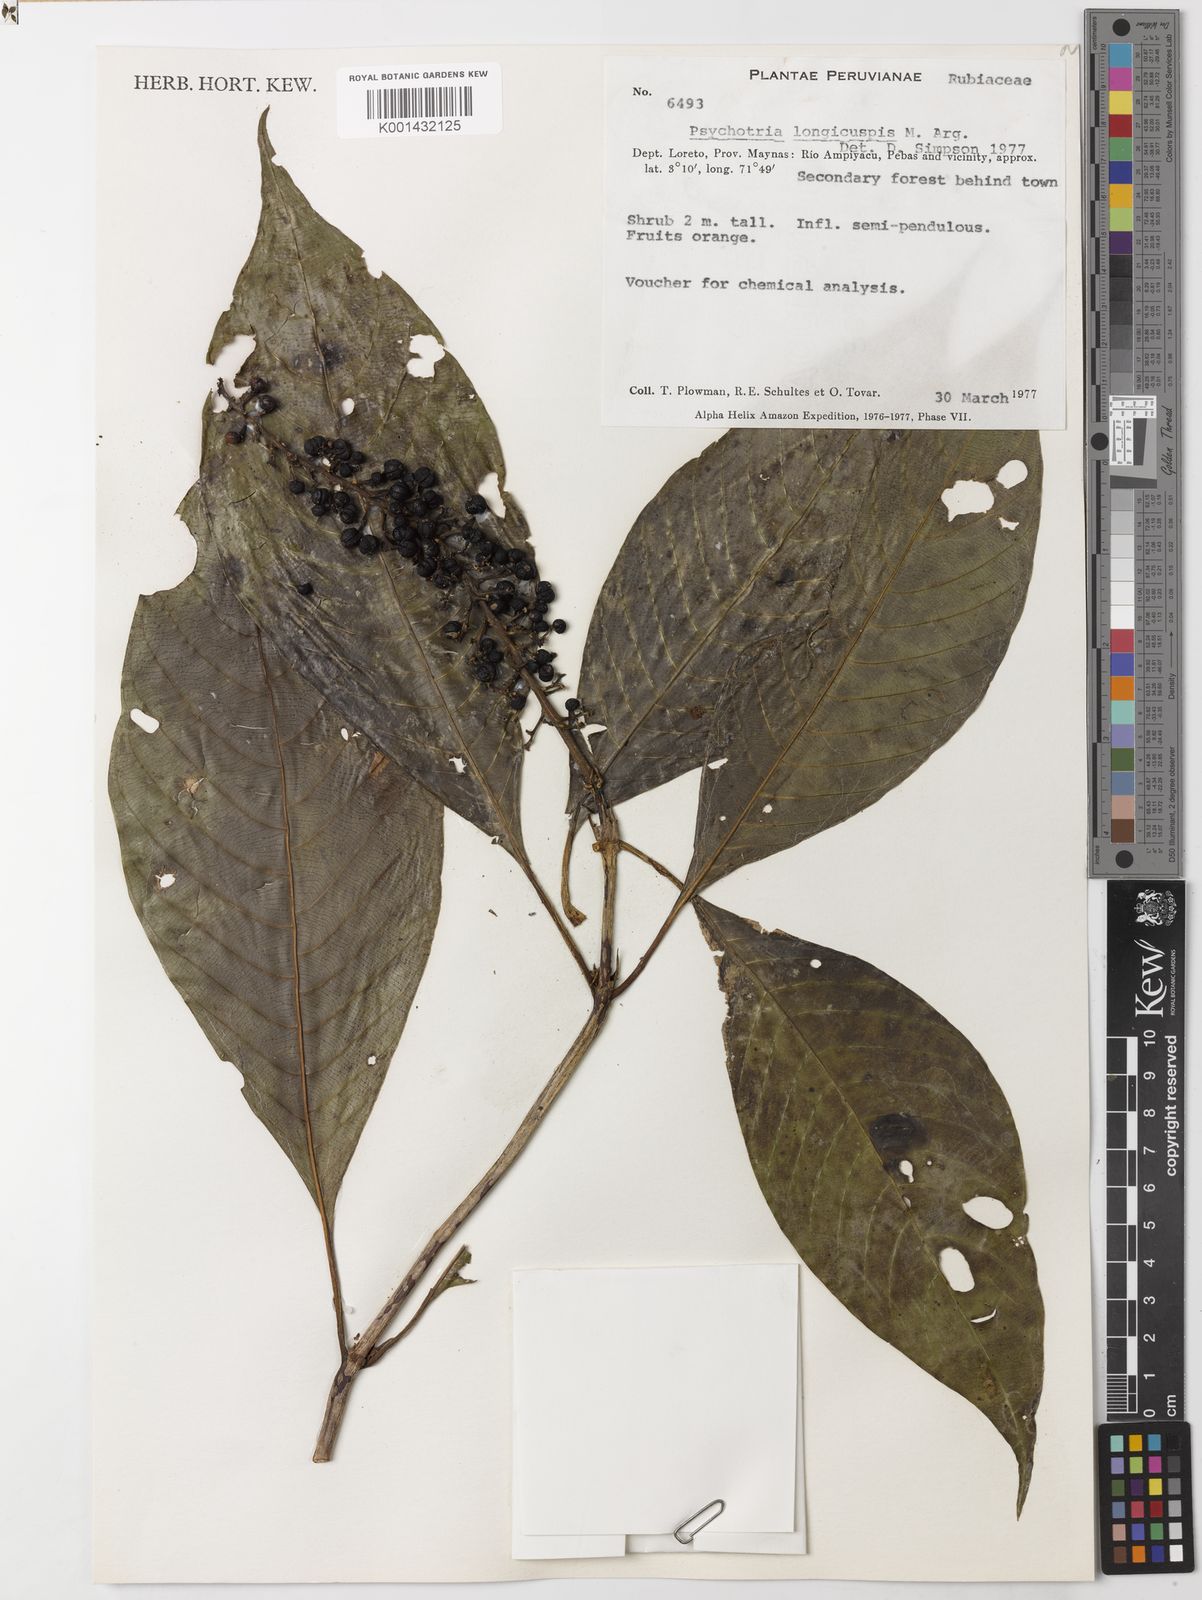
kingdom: Plantae
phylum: Tracheophyta
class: Magnoliopsida
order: Gentianales
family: Rubiaceae
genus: Psychotria
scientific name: Psychotria
